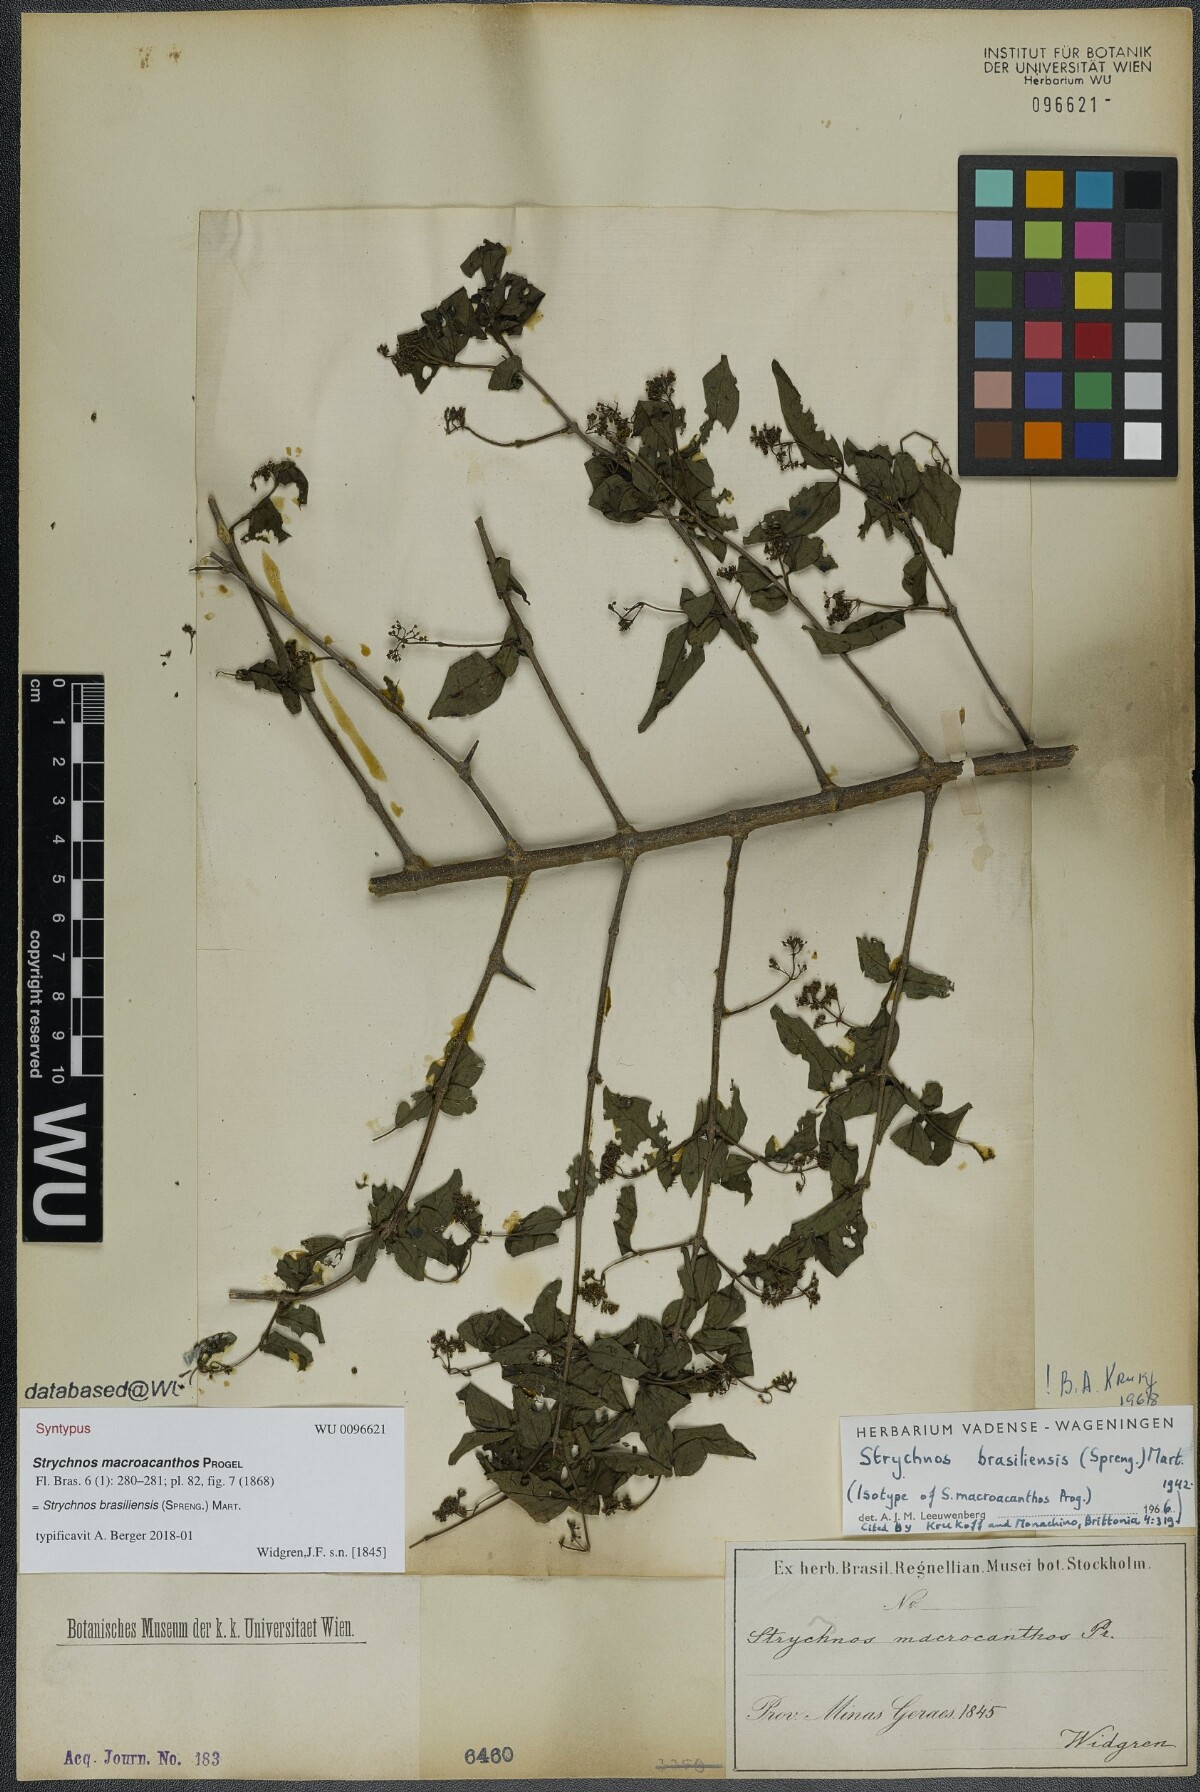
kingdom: Plantae
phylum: Tracheophyta
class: Magnoliopsida
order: Gentianales
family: Loganiaceae
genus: Strychnos
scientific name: Strychnos brasiliensis
